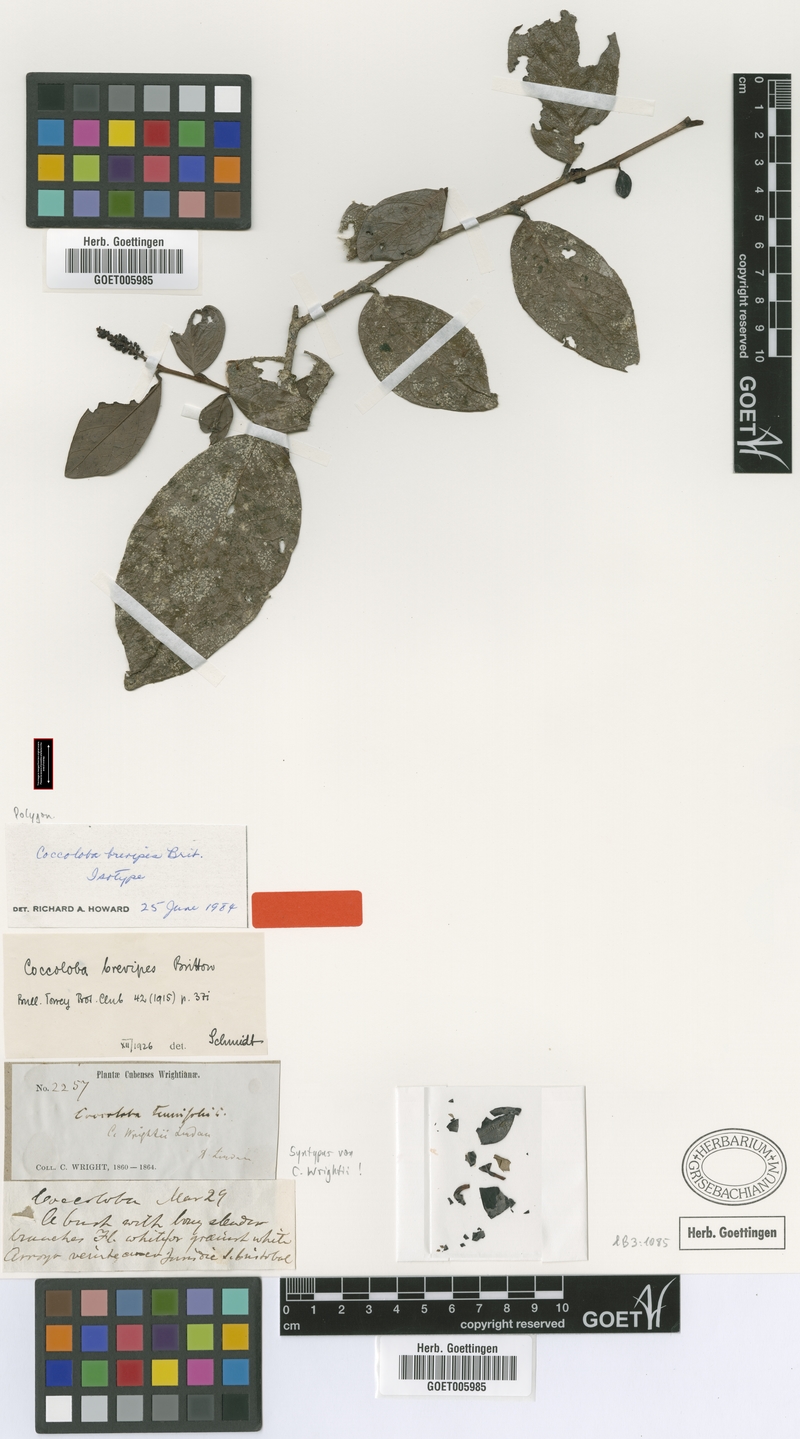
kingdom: Plantae
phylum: Tracheophyta
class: Magnoliopsida
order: Caryophyllales
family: Polygonaceae
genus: Coccoloba
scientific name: Coccoloba benitensis
